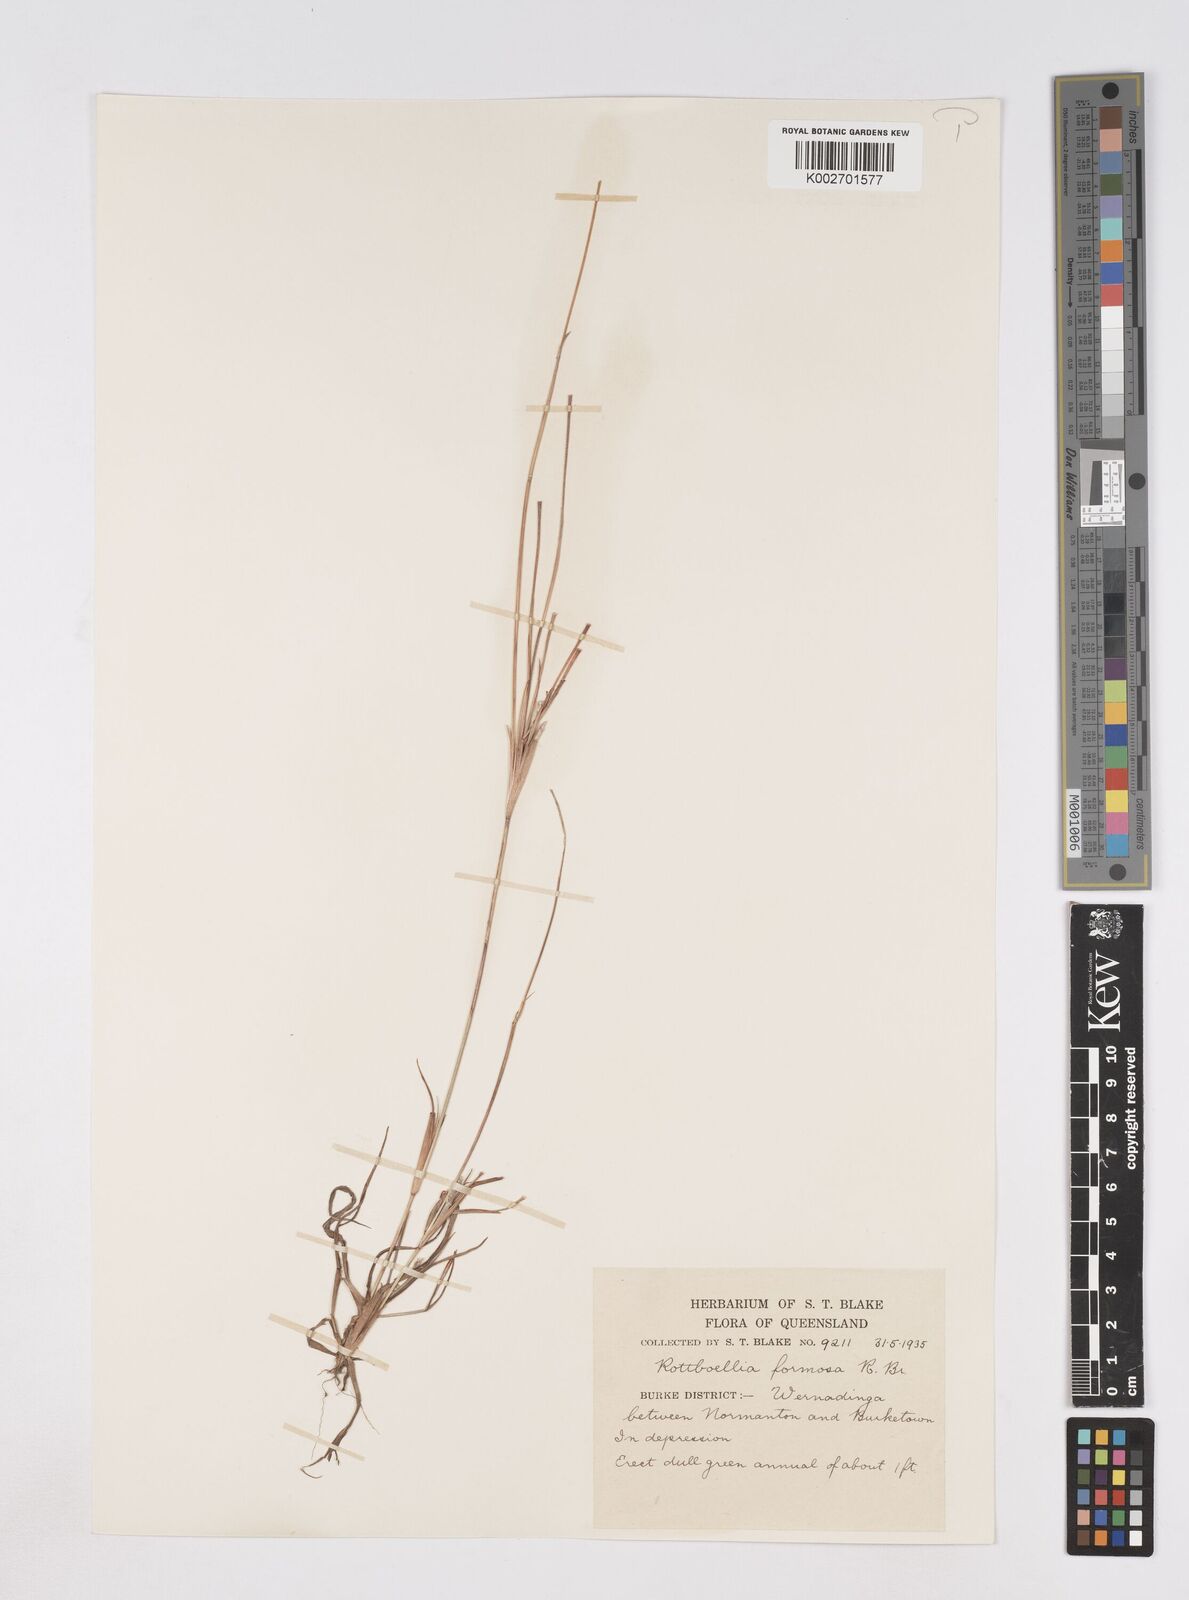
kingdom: Plantae
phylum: Tracheophyta
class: Liliopsida
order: Poales
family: Poaceae
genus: Heteropholis
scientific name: Heteropholis
